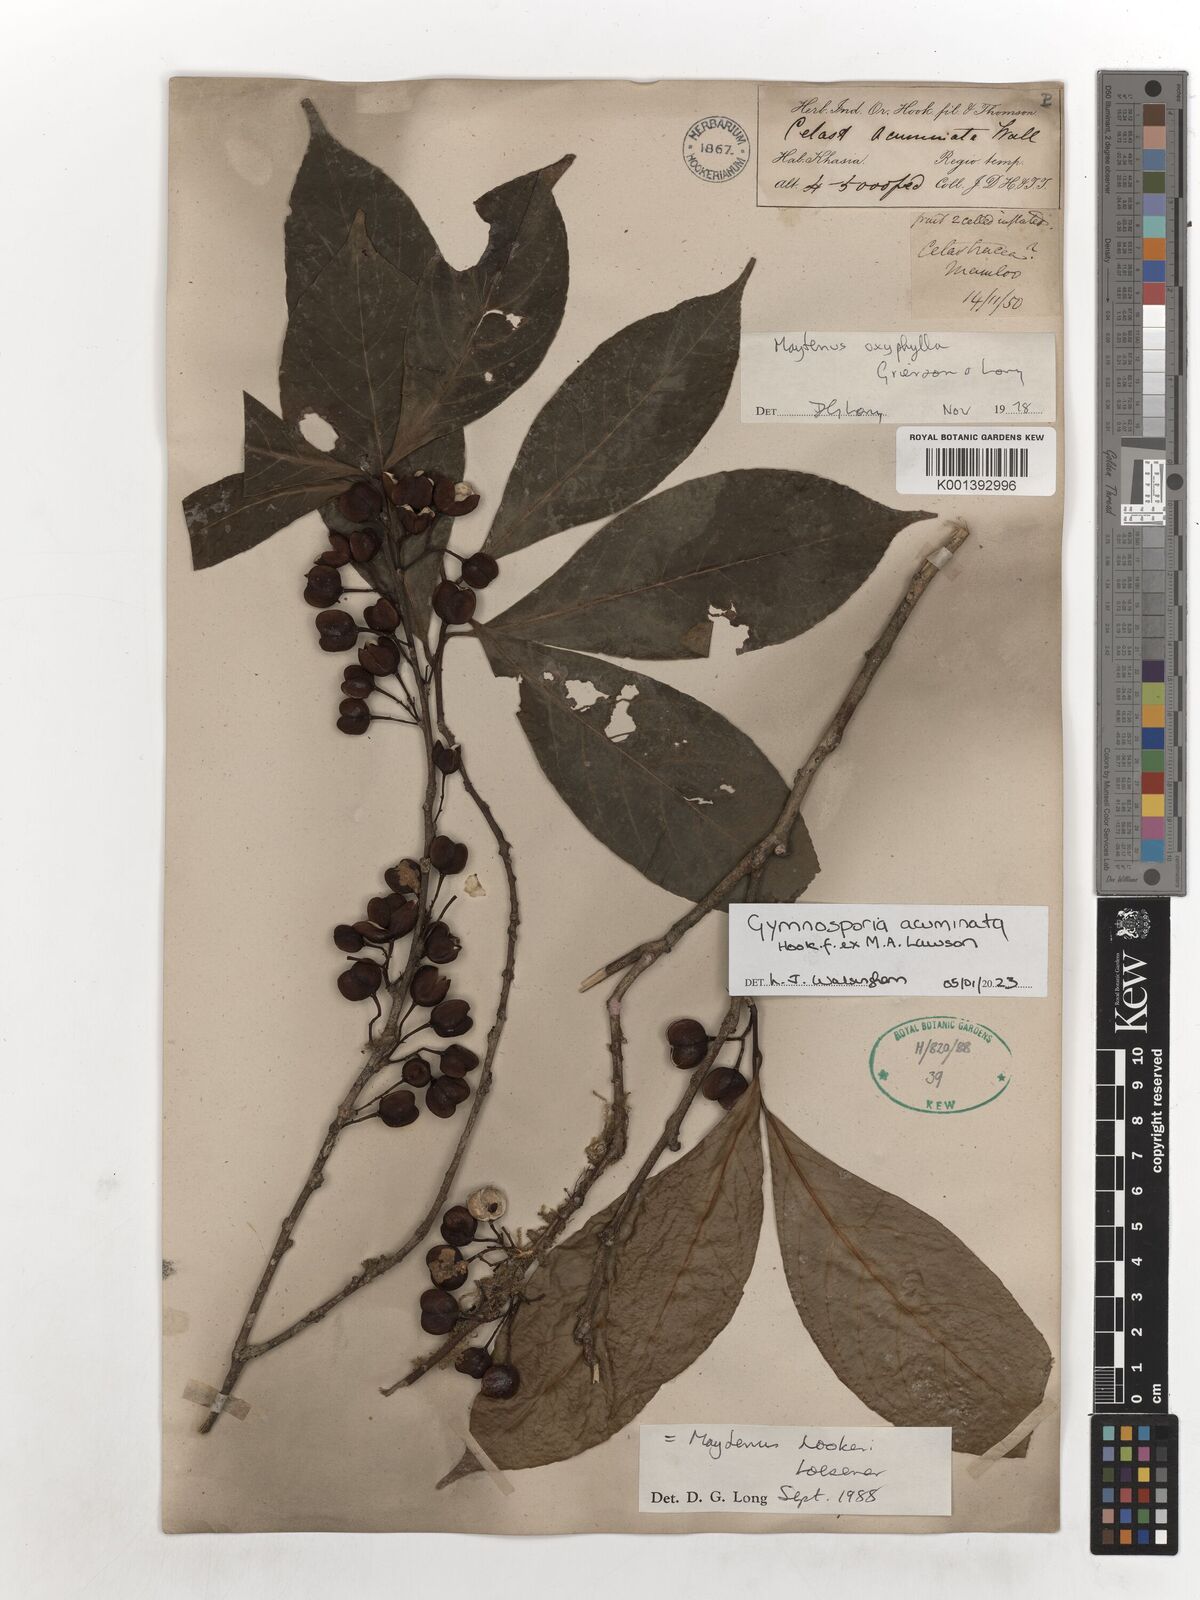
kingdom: Plantae
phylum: Tracheophyta
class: Magnoliopsida
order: Celastrales
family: Celastraceae
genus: Gymnosporia
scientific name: Gymnosporia oxyphylla
